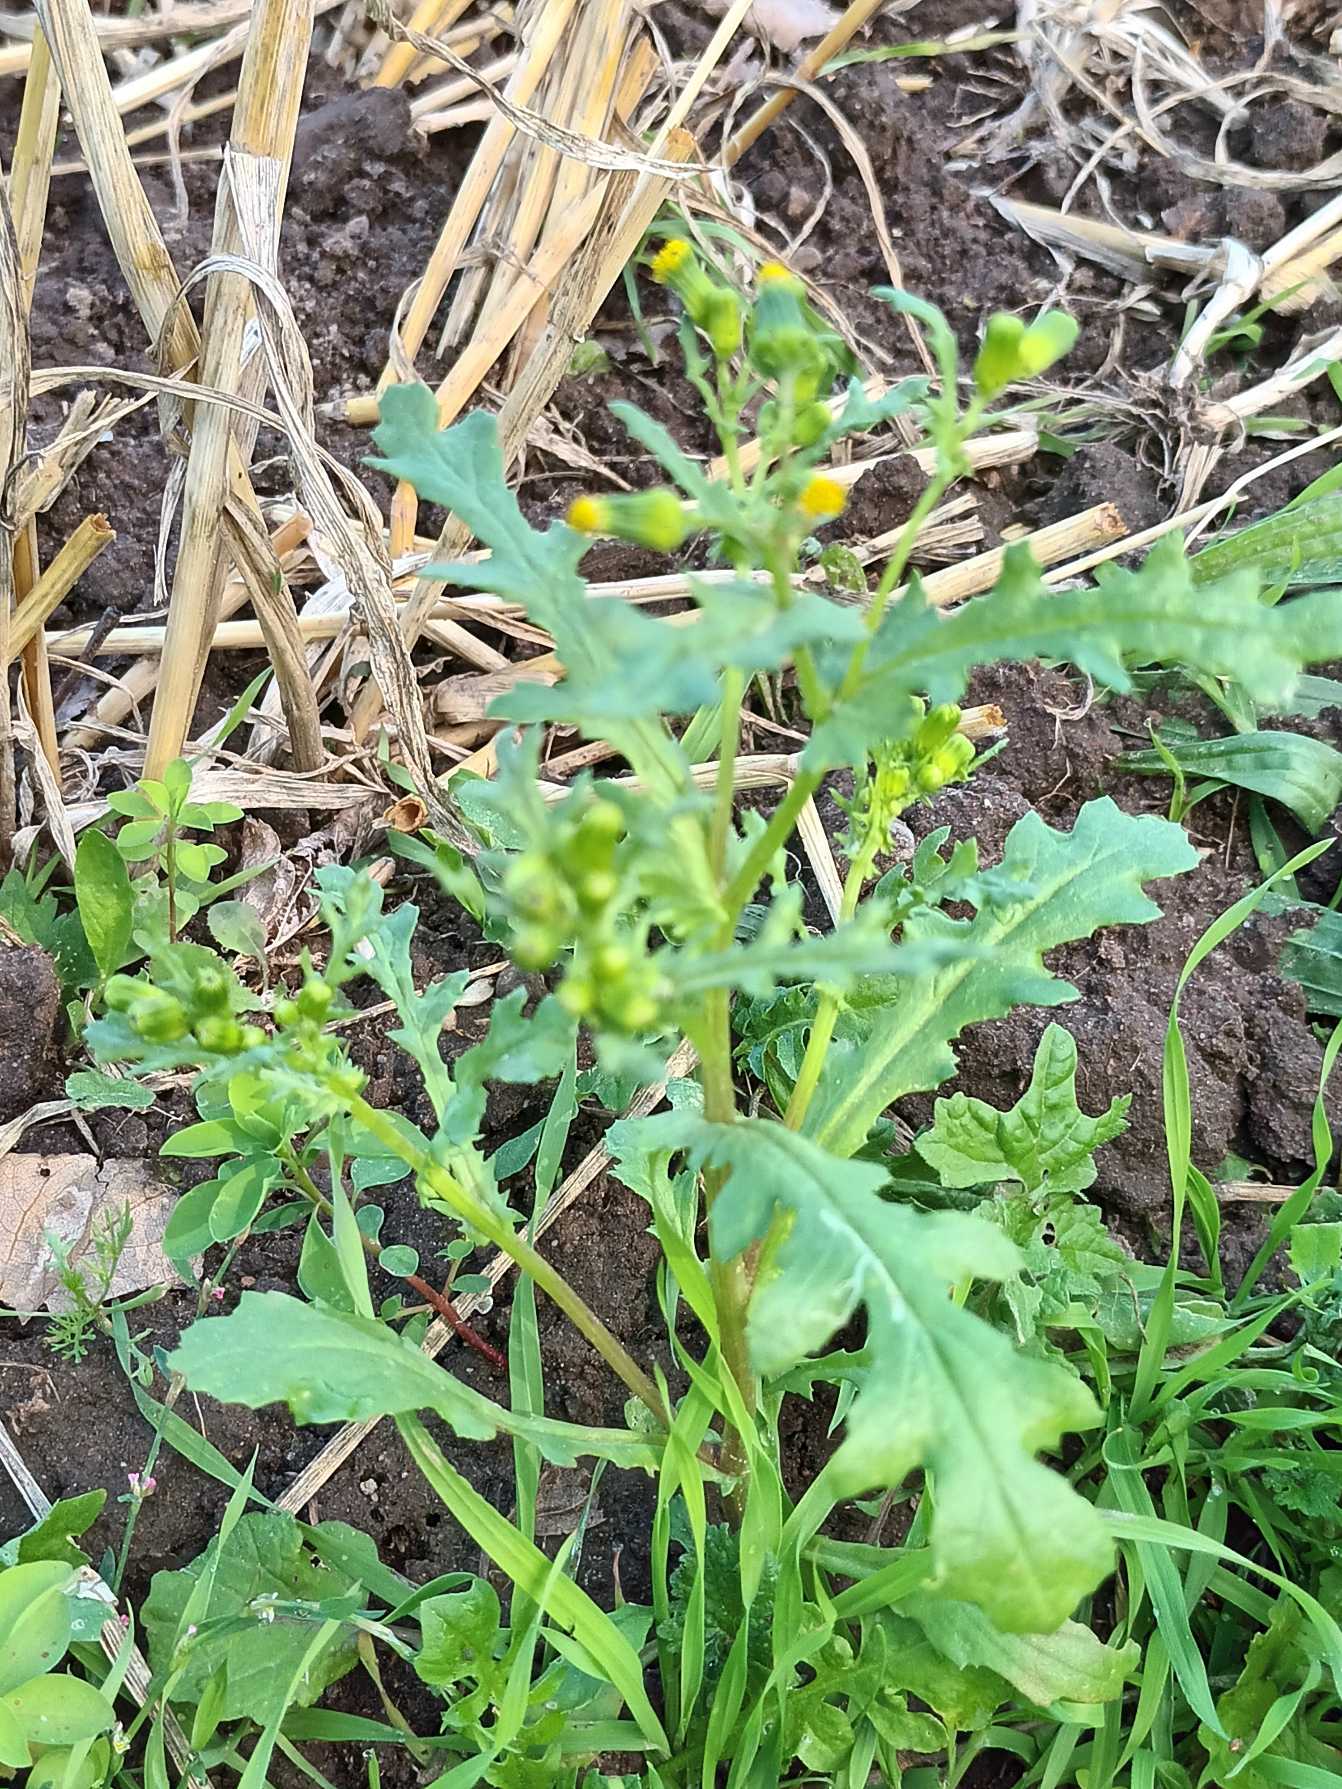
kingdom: Plantae
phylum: Tracheophyta
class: Magnoliopsida
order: Asterales
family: Asteraceae
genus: Senecio
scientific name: Senecio vulgaris
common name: Almindelig brandbæger
